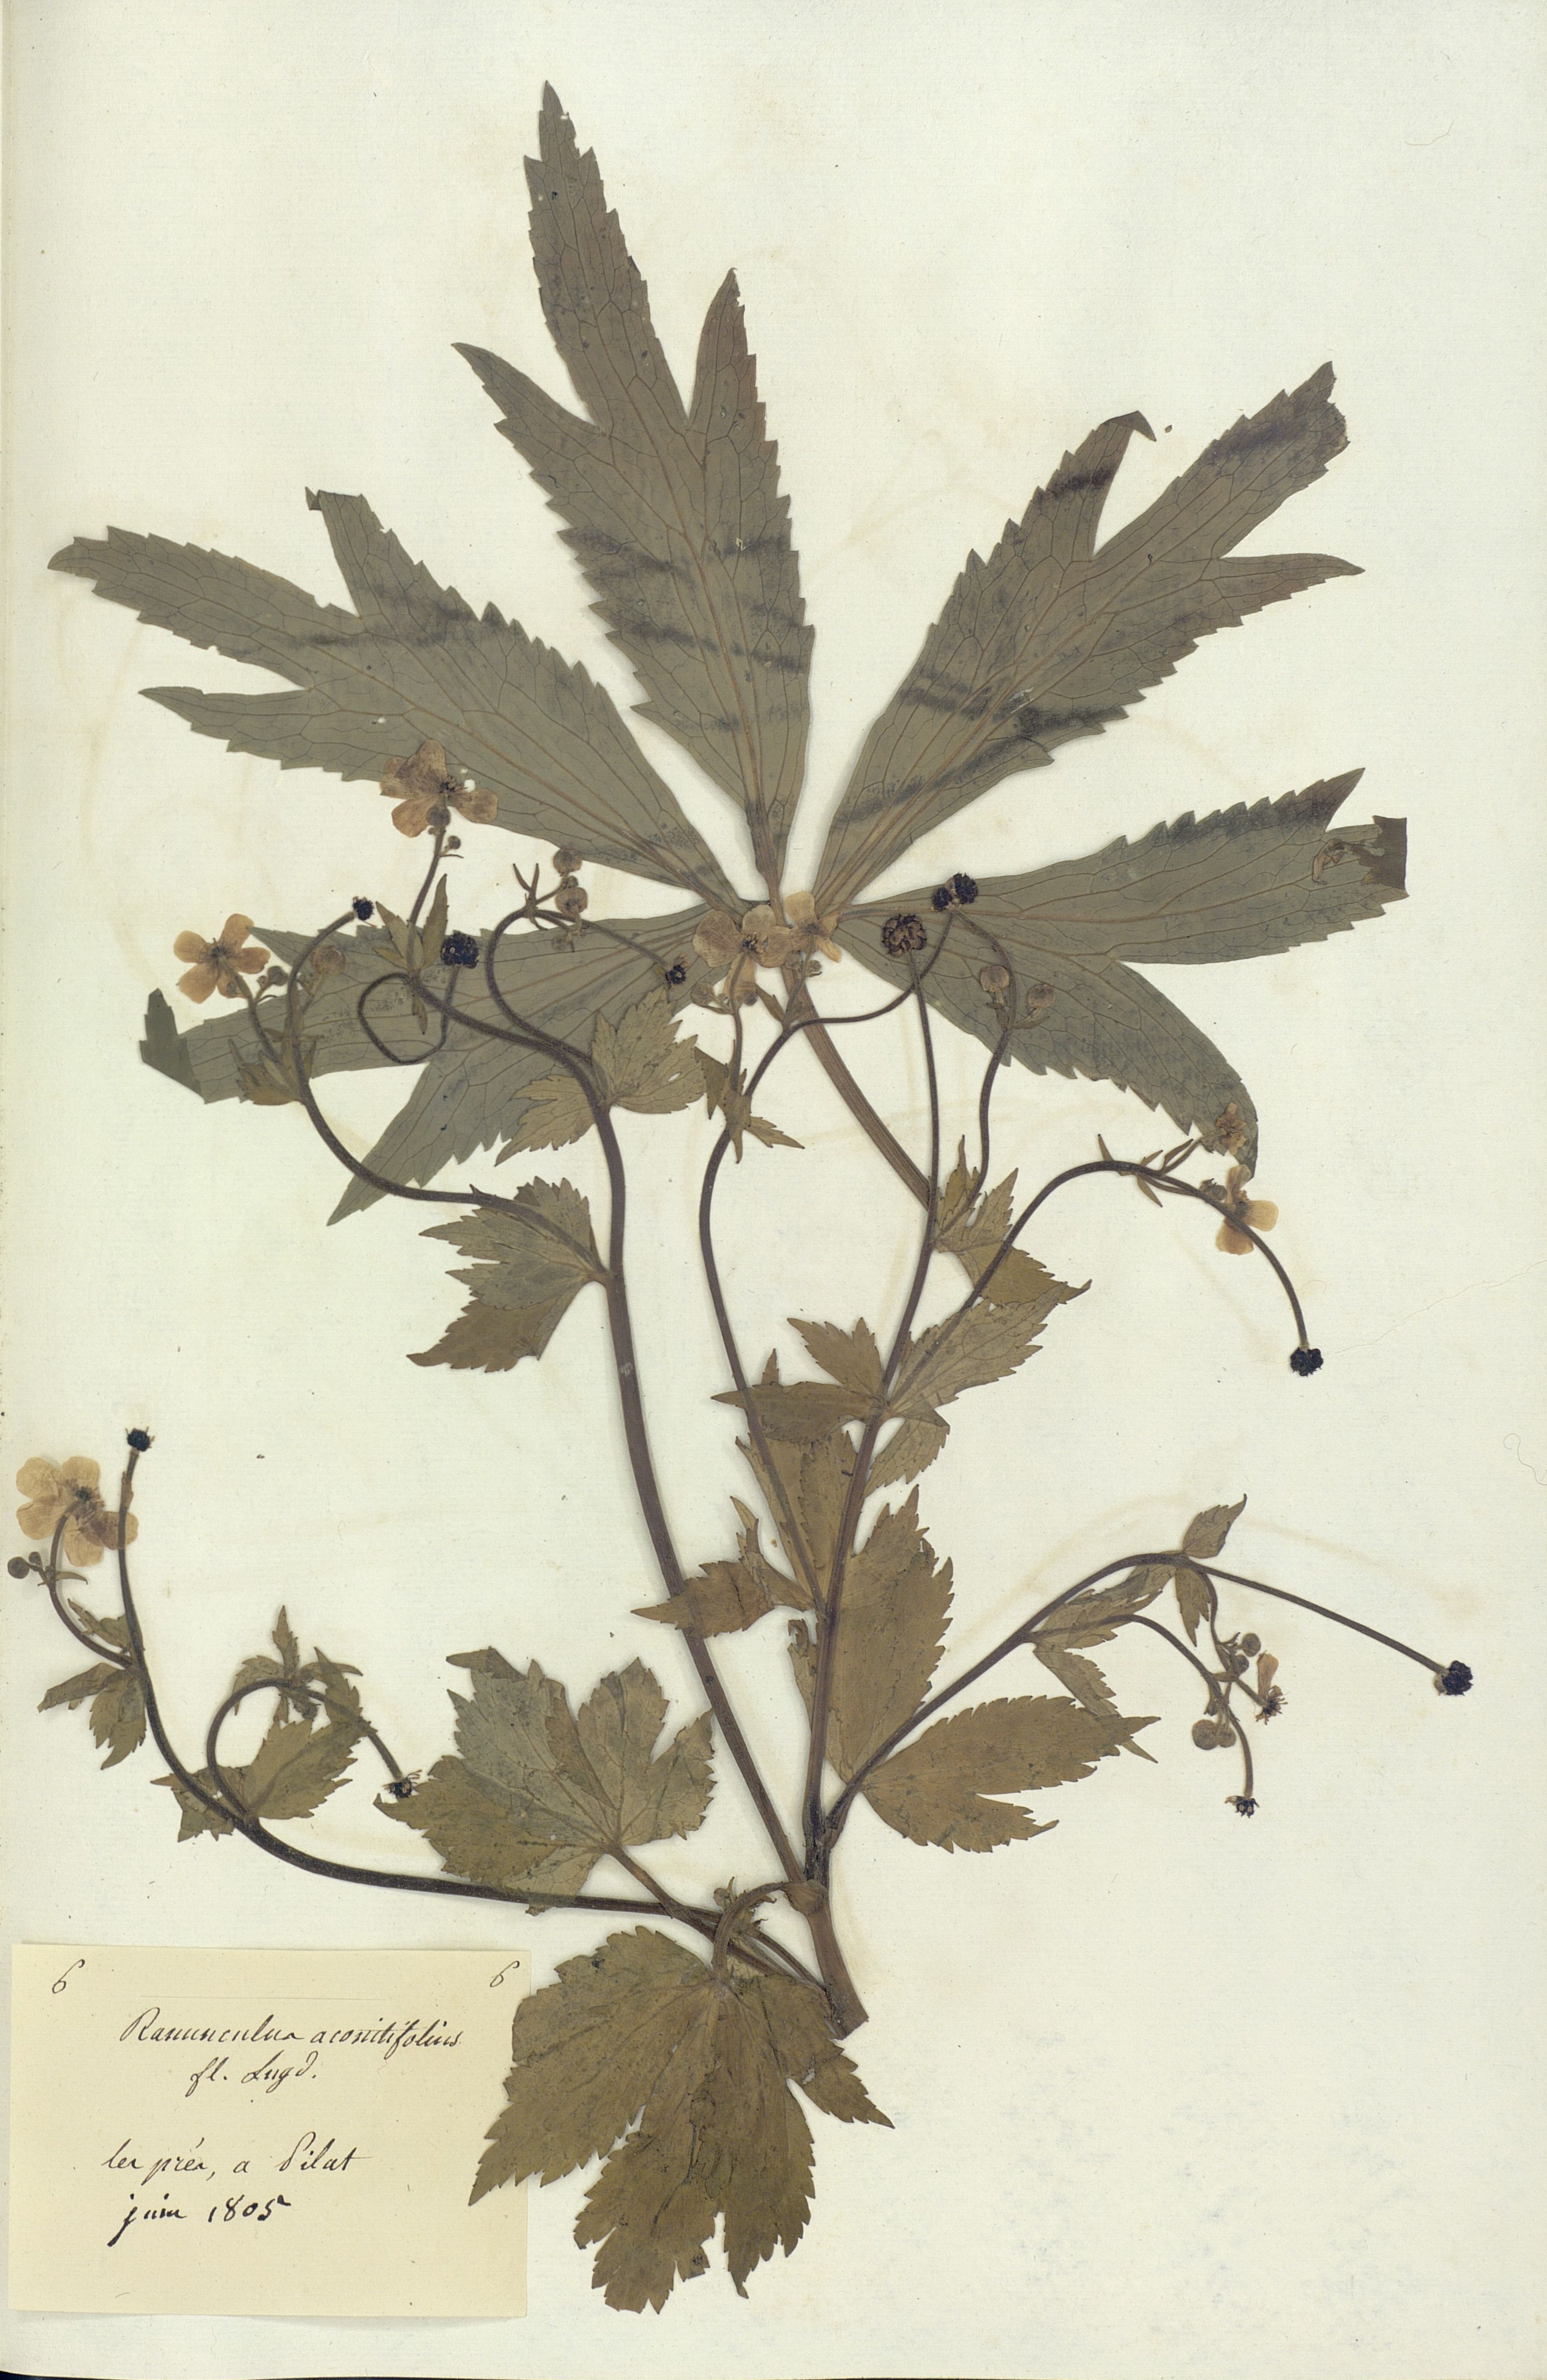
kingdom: Plantae
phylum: Tracheophyta
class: Magnoliopsida
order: Ranunculales
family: Ranunculaceae
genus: Ranunculus
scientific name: Ranunculus aconitifolius
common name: Aconite-leaved buttercup
